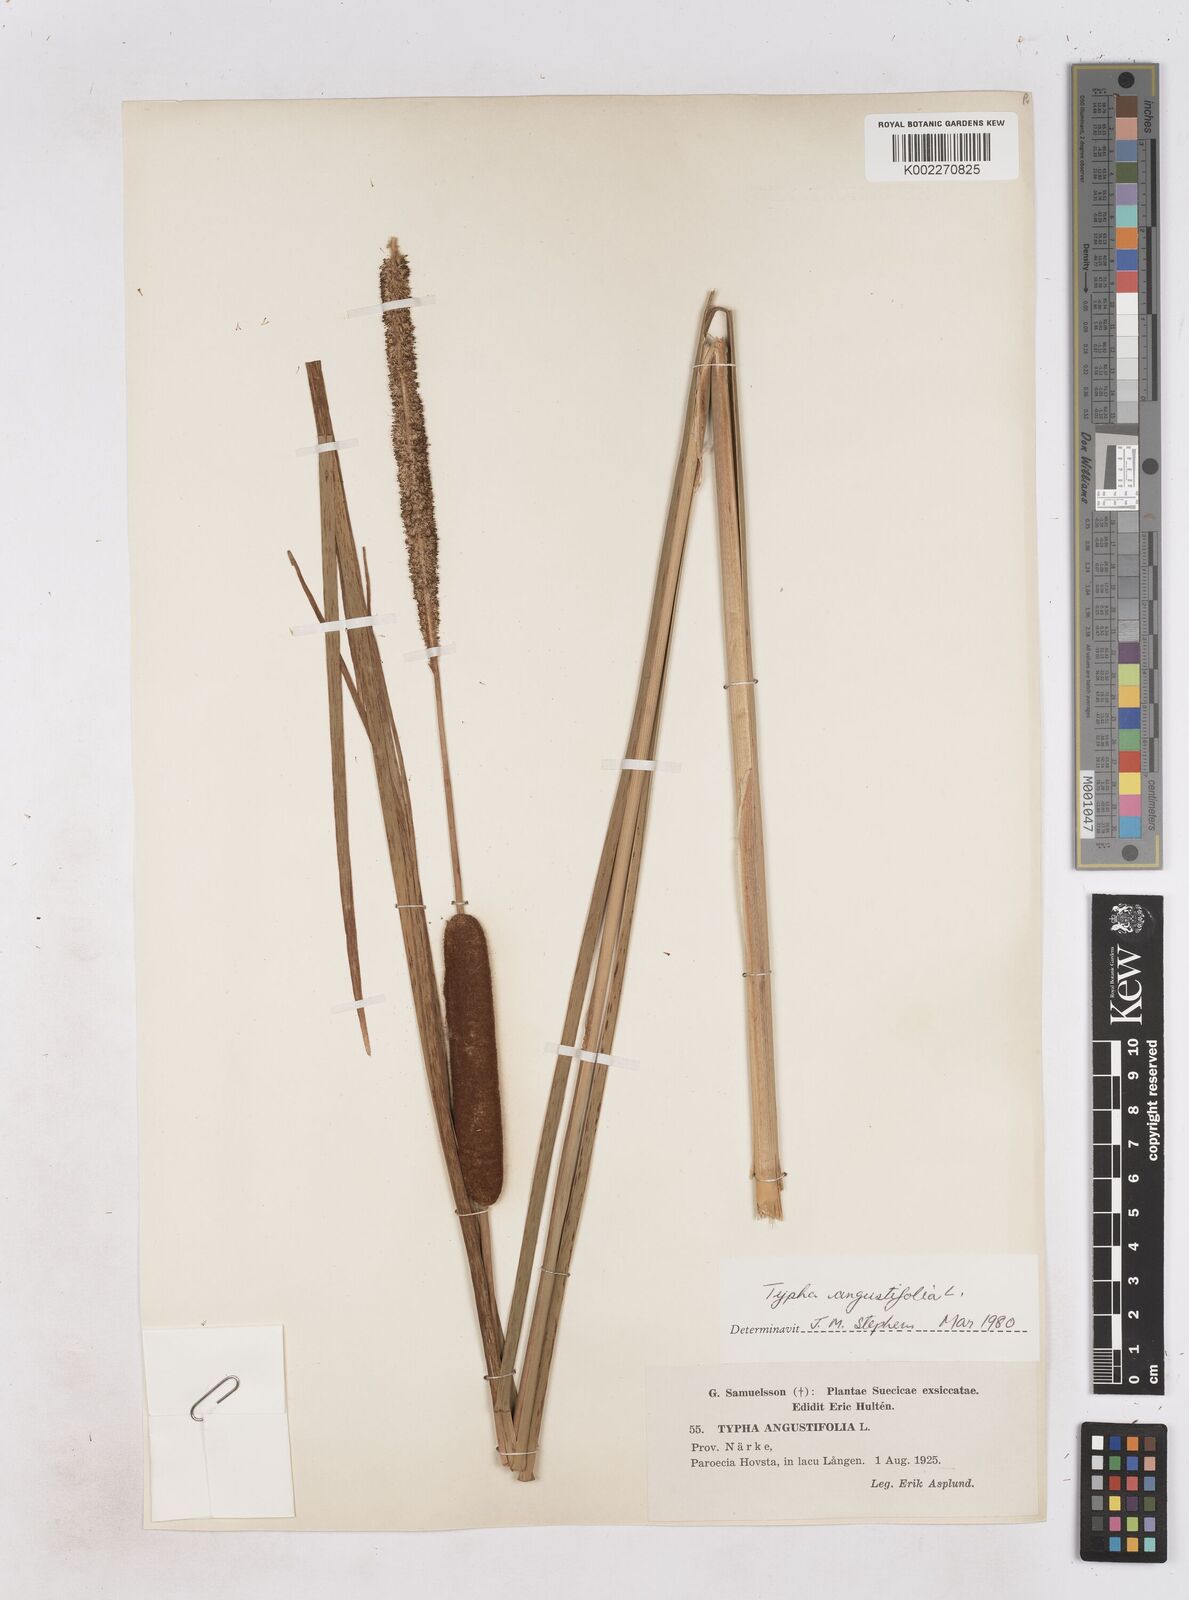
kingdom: Plantae
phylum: Tracheophyta
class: Liliopsida
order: Poales
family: Typhaceae
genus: Typha
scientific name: Typha angustifolia
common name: Lesser bulrush
